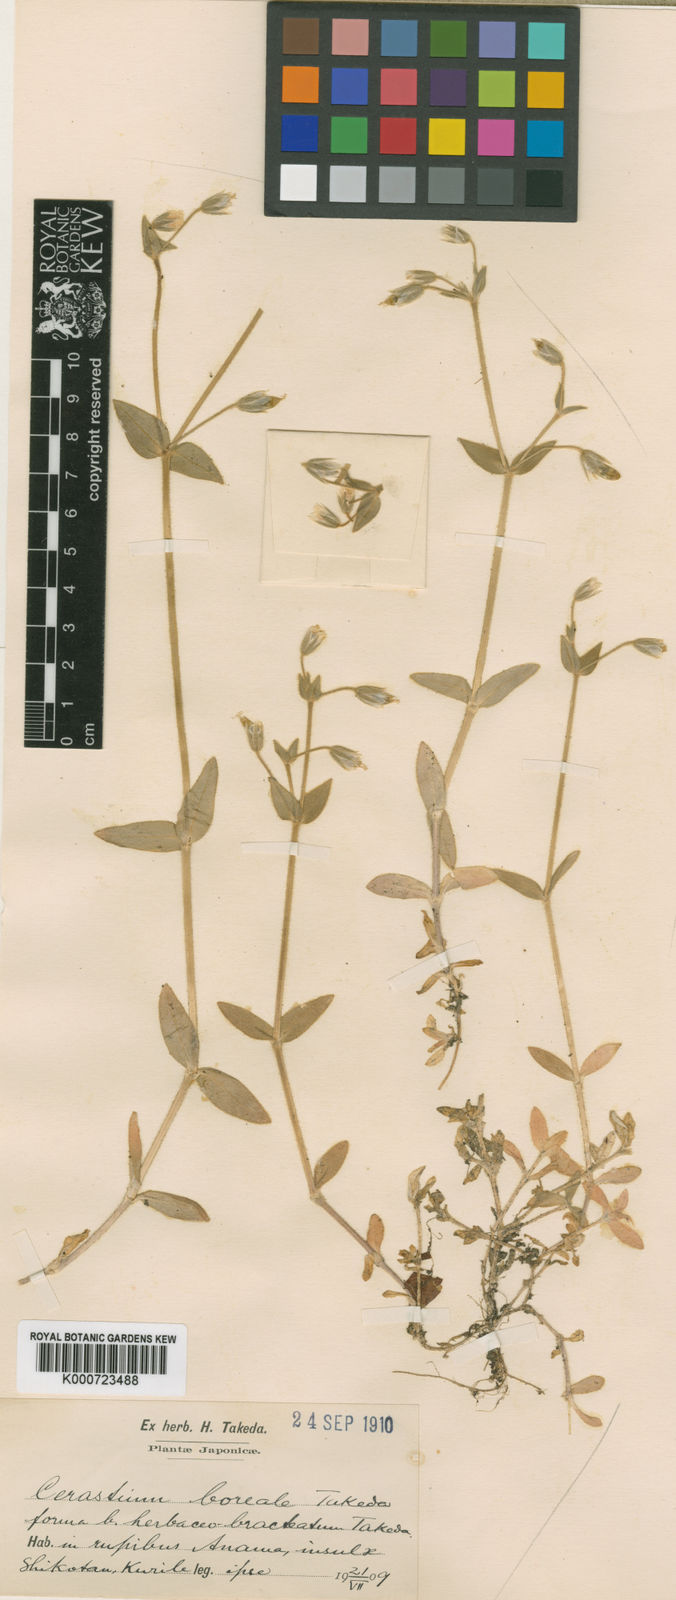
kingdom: Plantae
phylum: Tracheophyta
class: Magnoliopsida
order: Caryophyllales
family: Caryophyllaceae
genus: Cerastium
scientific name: Cerastium fischerianum
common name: Fischer's chickweed
